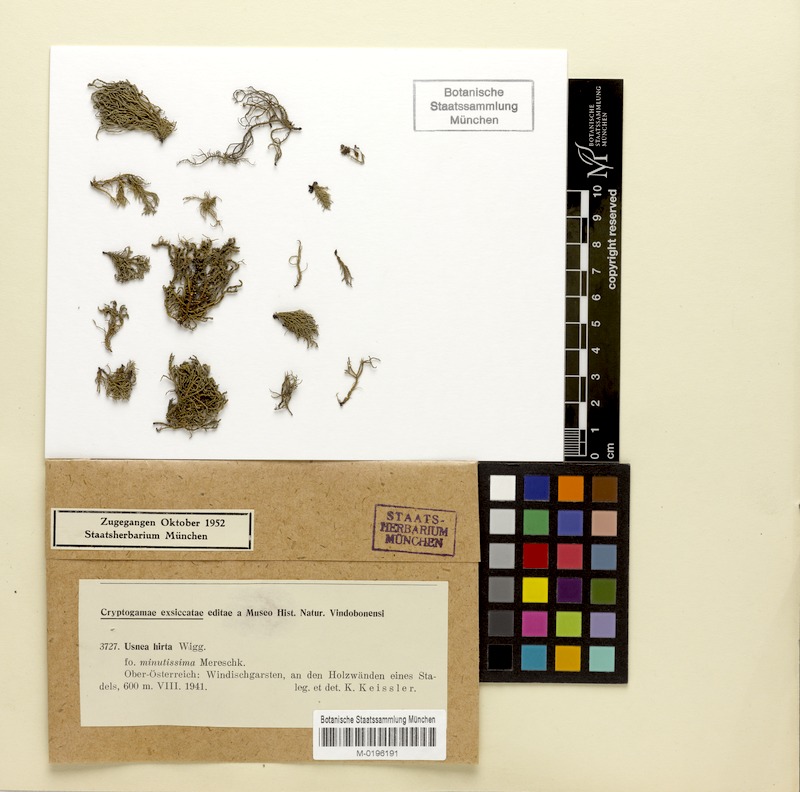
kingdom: Fungi
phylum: Ascomycota
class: Lecanoromycetes
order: Lecanorales
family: Parmeliaceae
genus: Usnea
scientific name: Usnea hirta
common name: Bristly beard lichen
